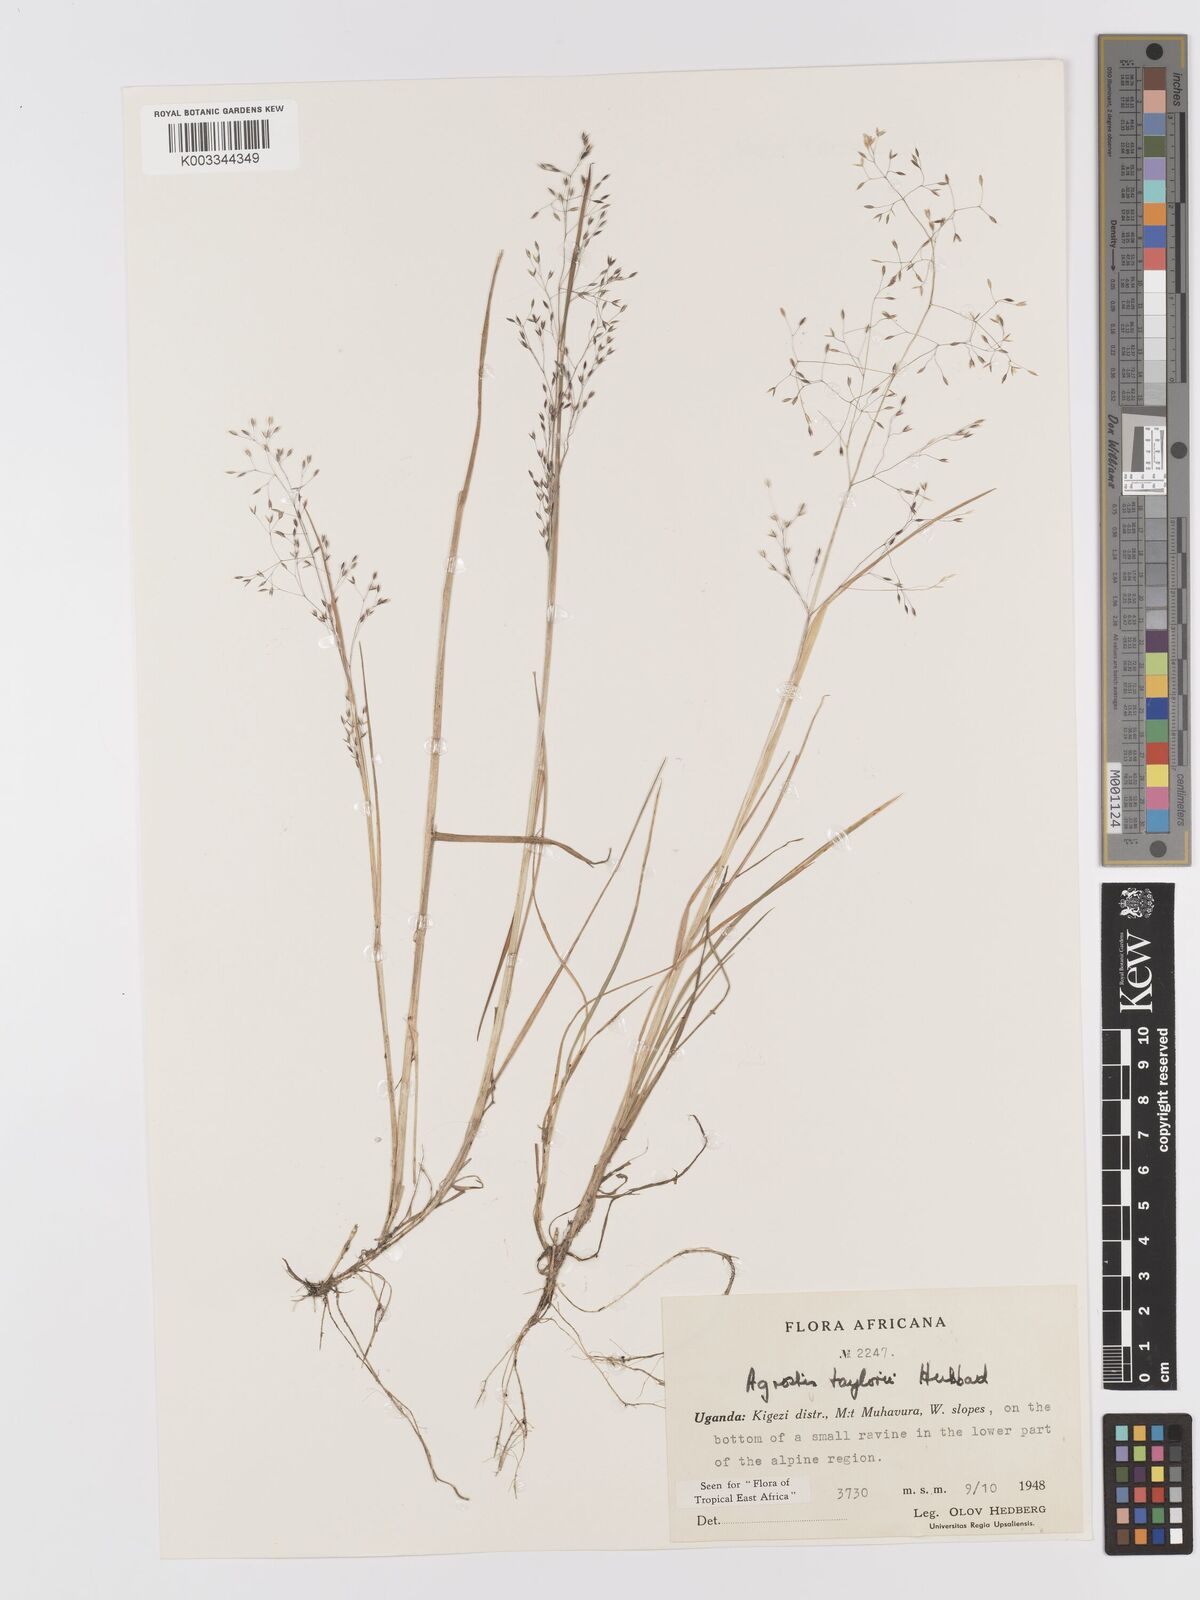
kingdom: Plantae
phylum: Tracheophyta
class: Liliopsida
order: Poales
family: Poaceae
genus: Agrostis
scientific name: Agrostis taylorii
